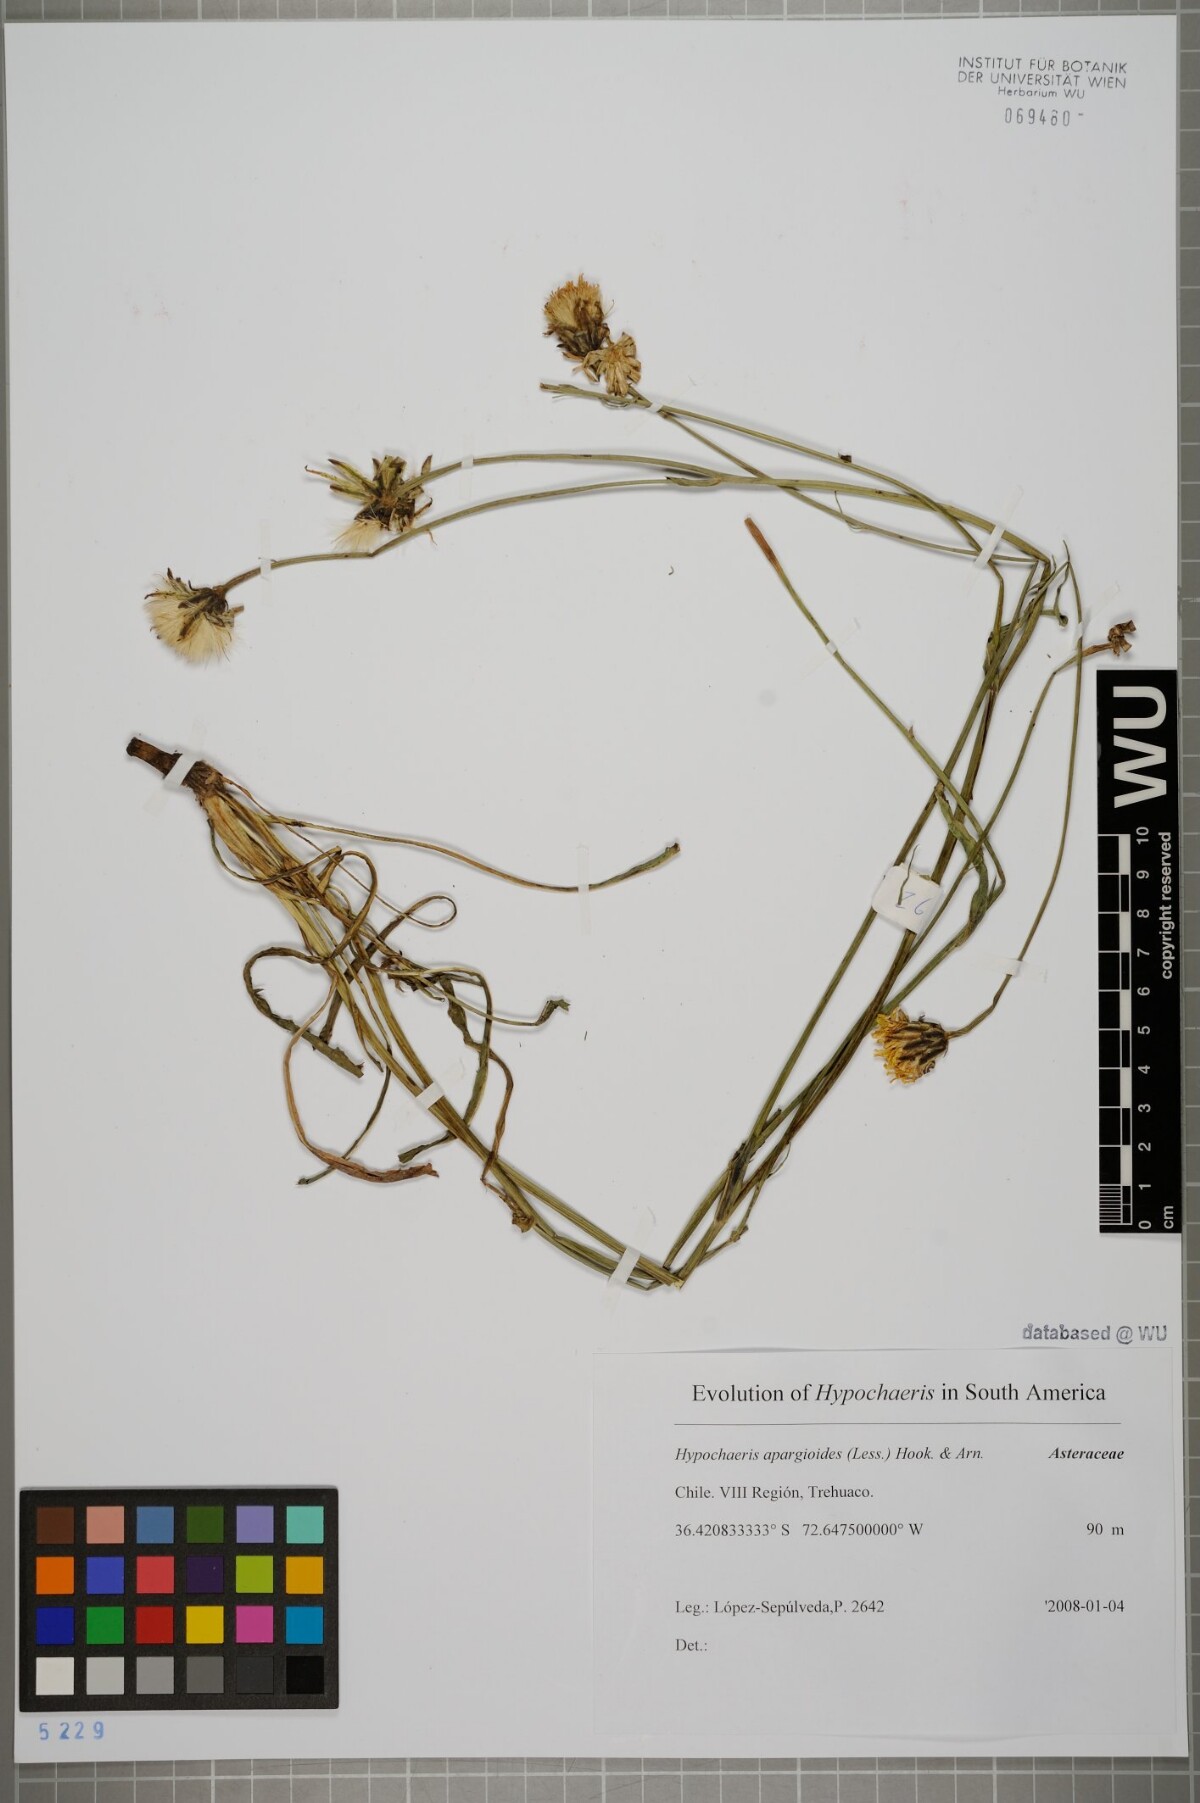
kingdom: Plantae
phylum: Tracheophyta
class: Magnoliopsida
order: Asterales
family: Asteraceae
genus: Hypochaeris
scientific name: Hypochaeris apargioides
